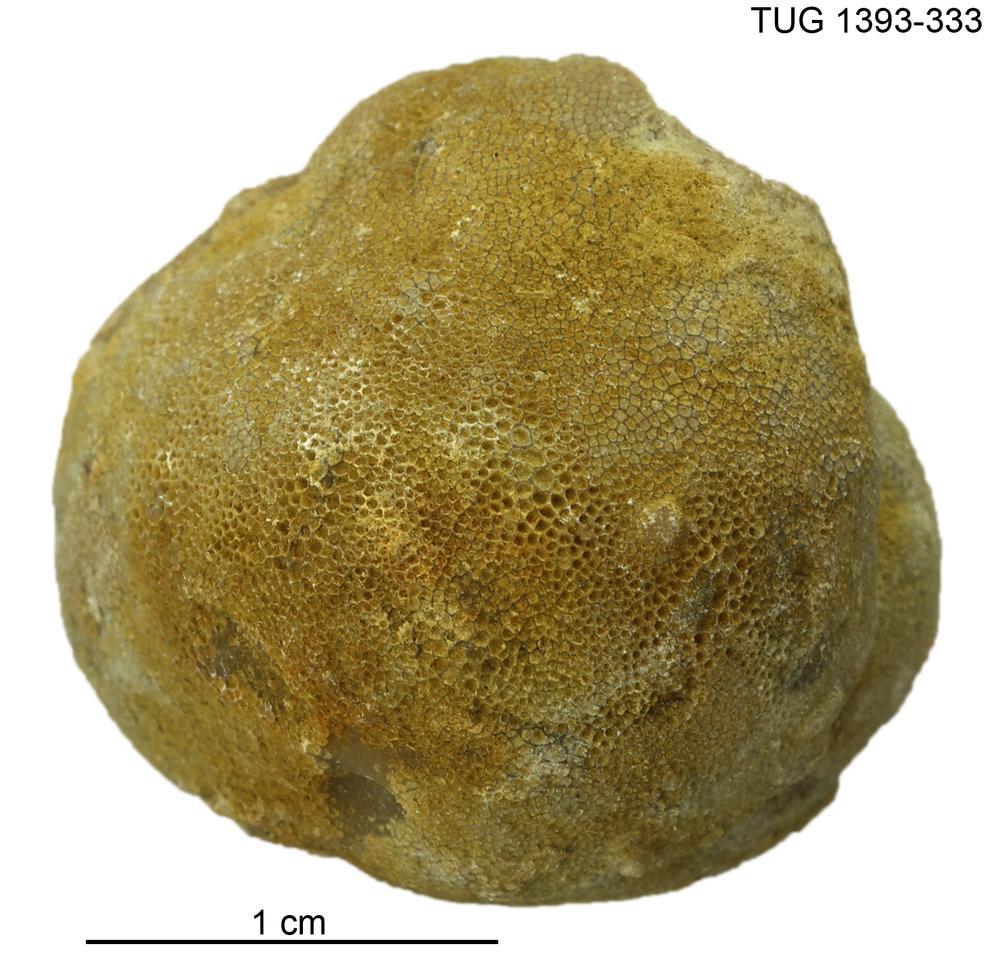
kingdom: Animalia
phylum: Bryozoa
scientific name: Bryozoa
